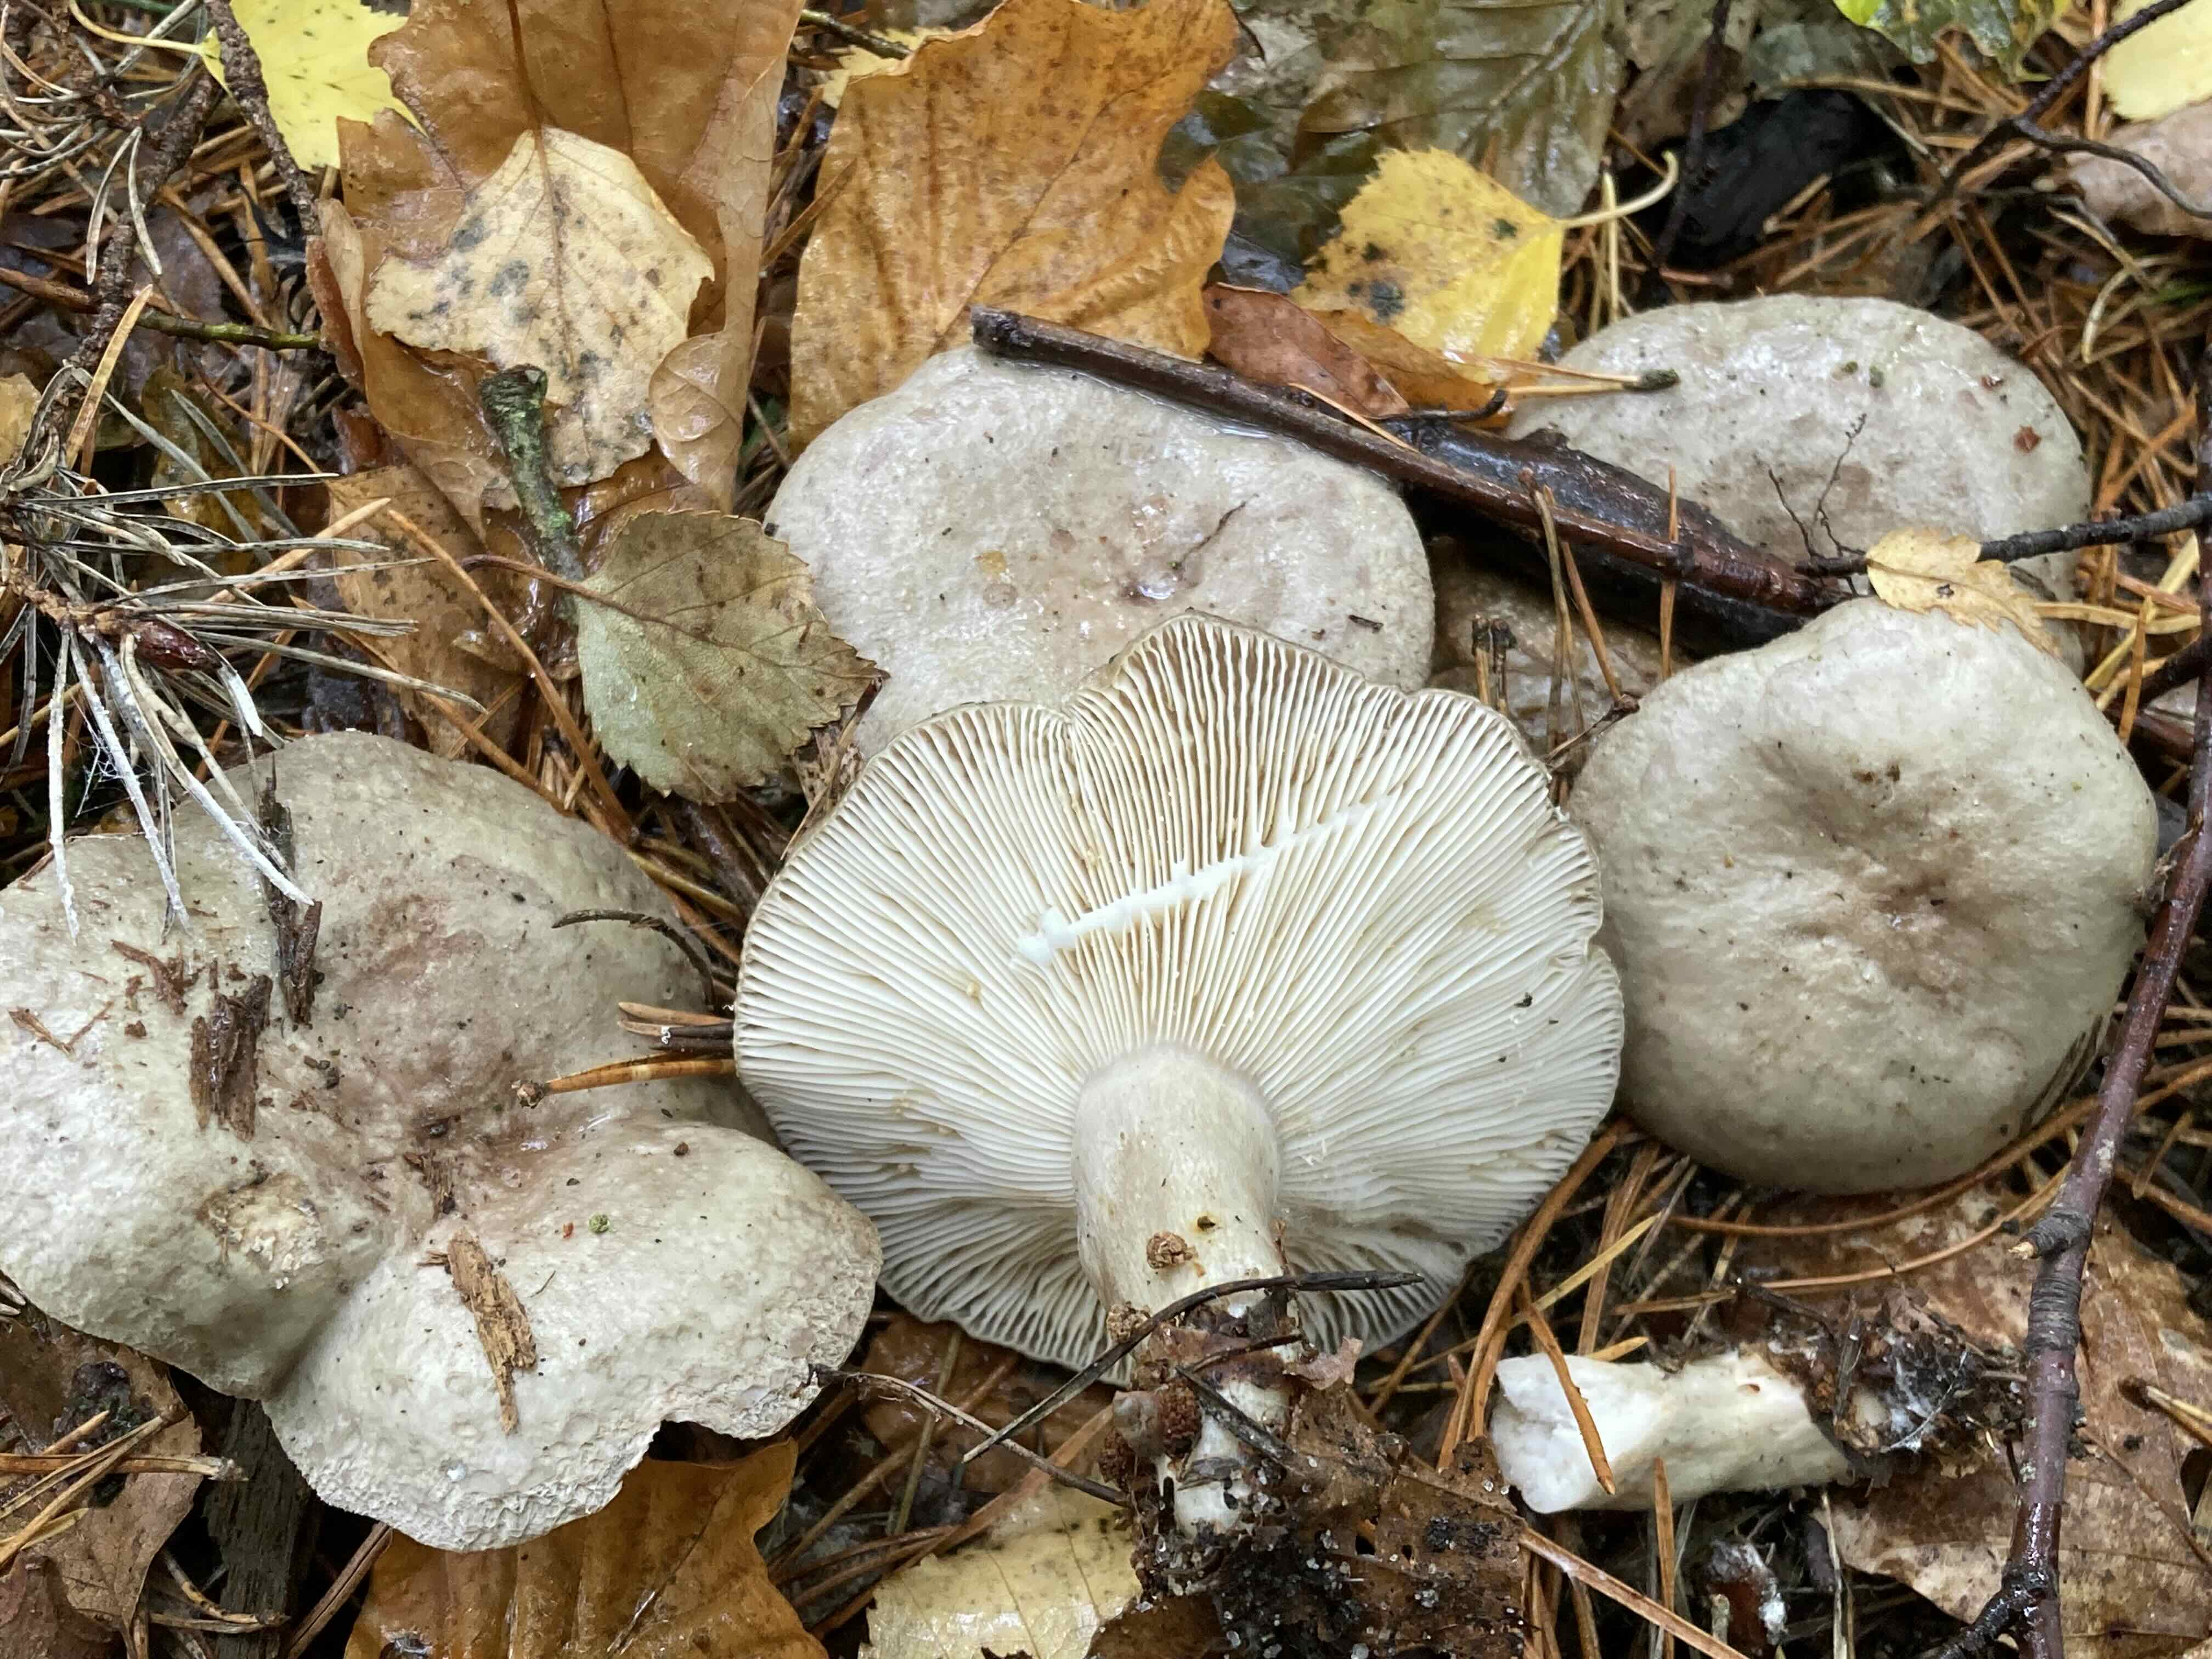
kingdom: Fungi
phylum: Basidiomycota
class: Agaricomycetes
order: Russulales
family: Russulaceae
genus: Lactarius
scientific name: Lactarius blennius
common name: dråbeplettet mælkehat
